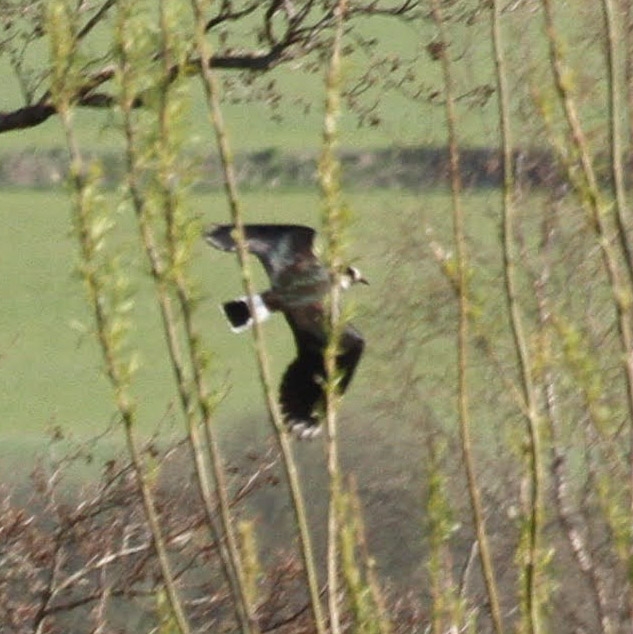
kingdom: Animalia
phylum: Chordata
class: Aves
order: Charadriiformes
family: Charadriidae
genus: Vanellus
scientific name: Vanellus vanellus
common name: Vibe
